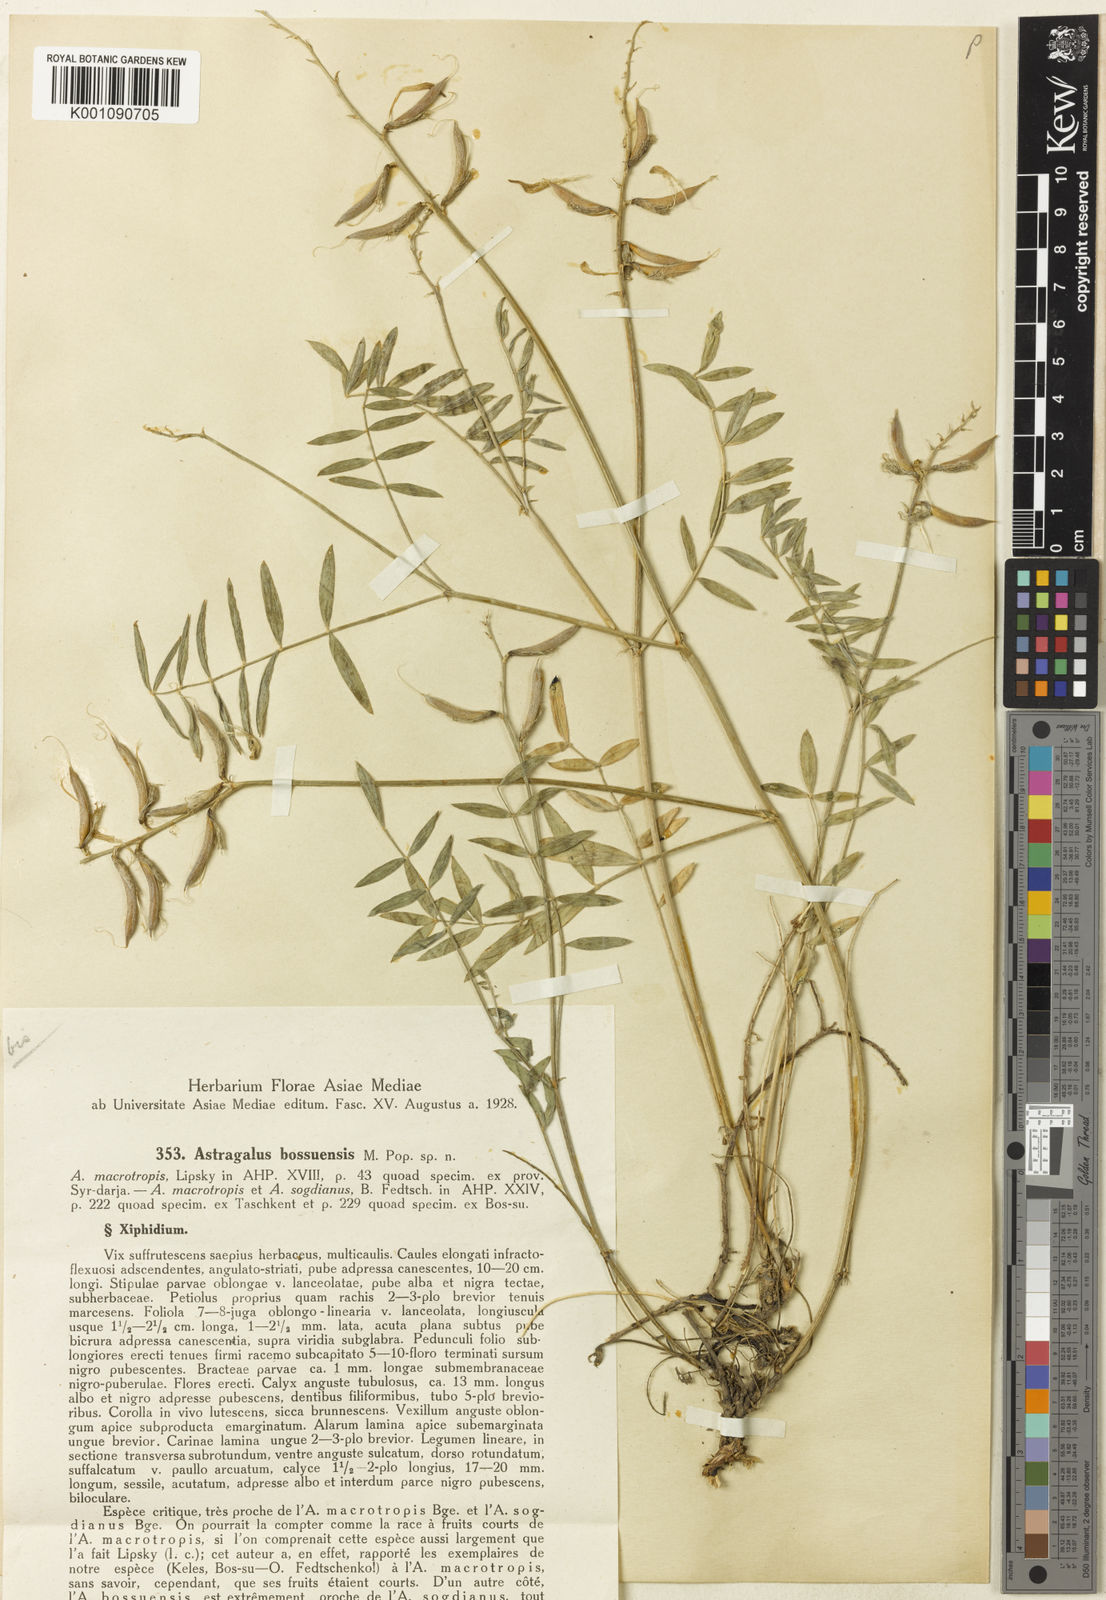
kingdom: Plantae
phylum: Tracheophyta
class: Magnoliopsida
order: Fabales
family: Fabaceae
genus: Astragalus
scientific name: Astragalus
